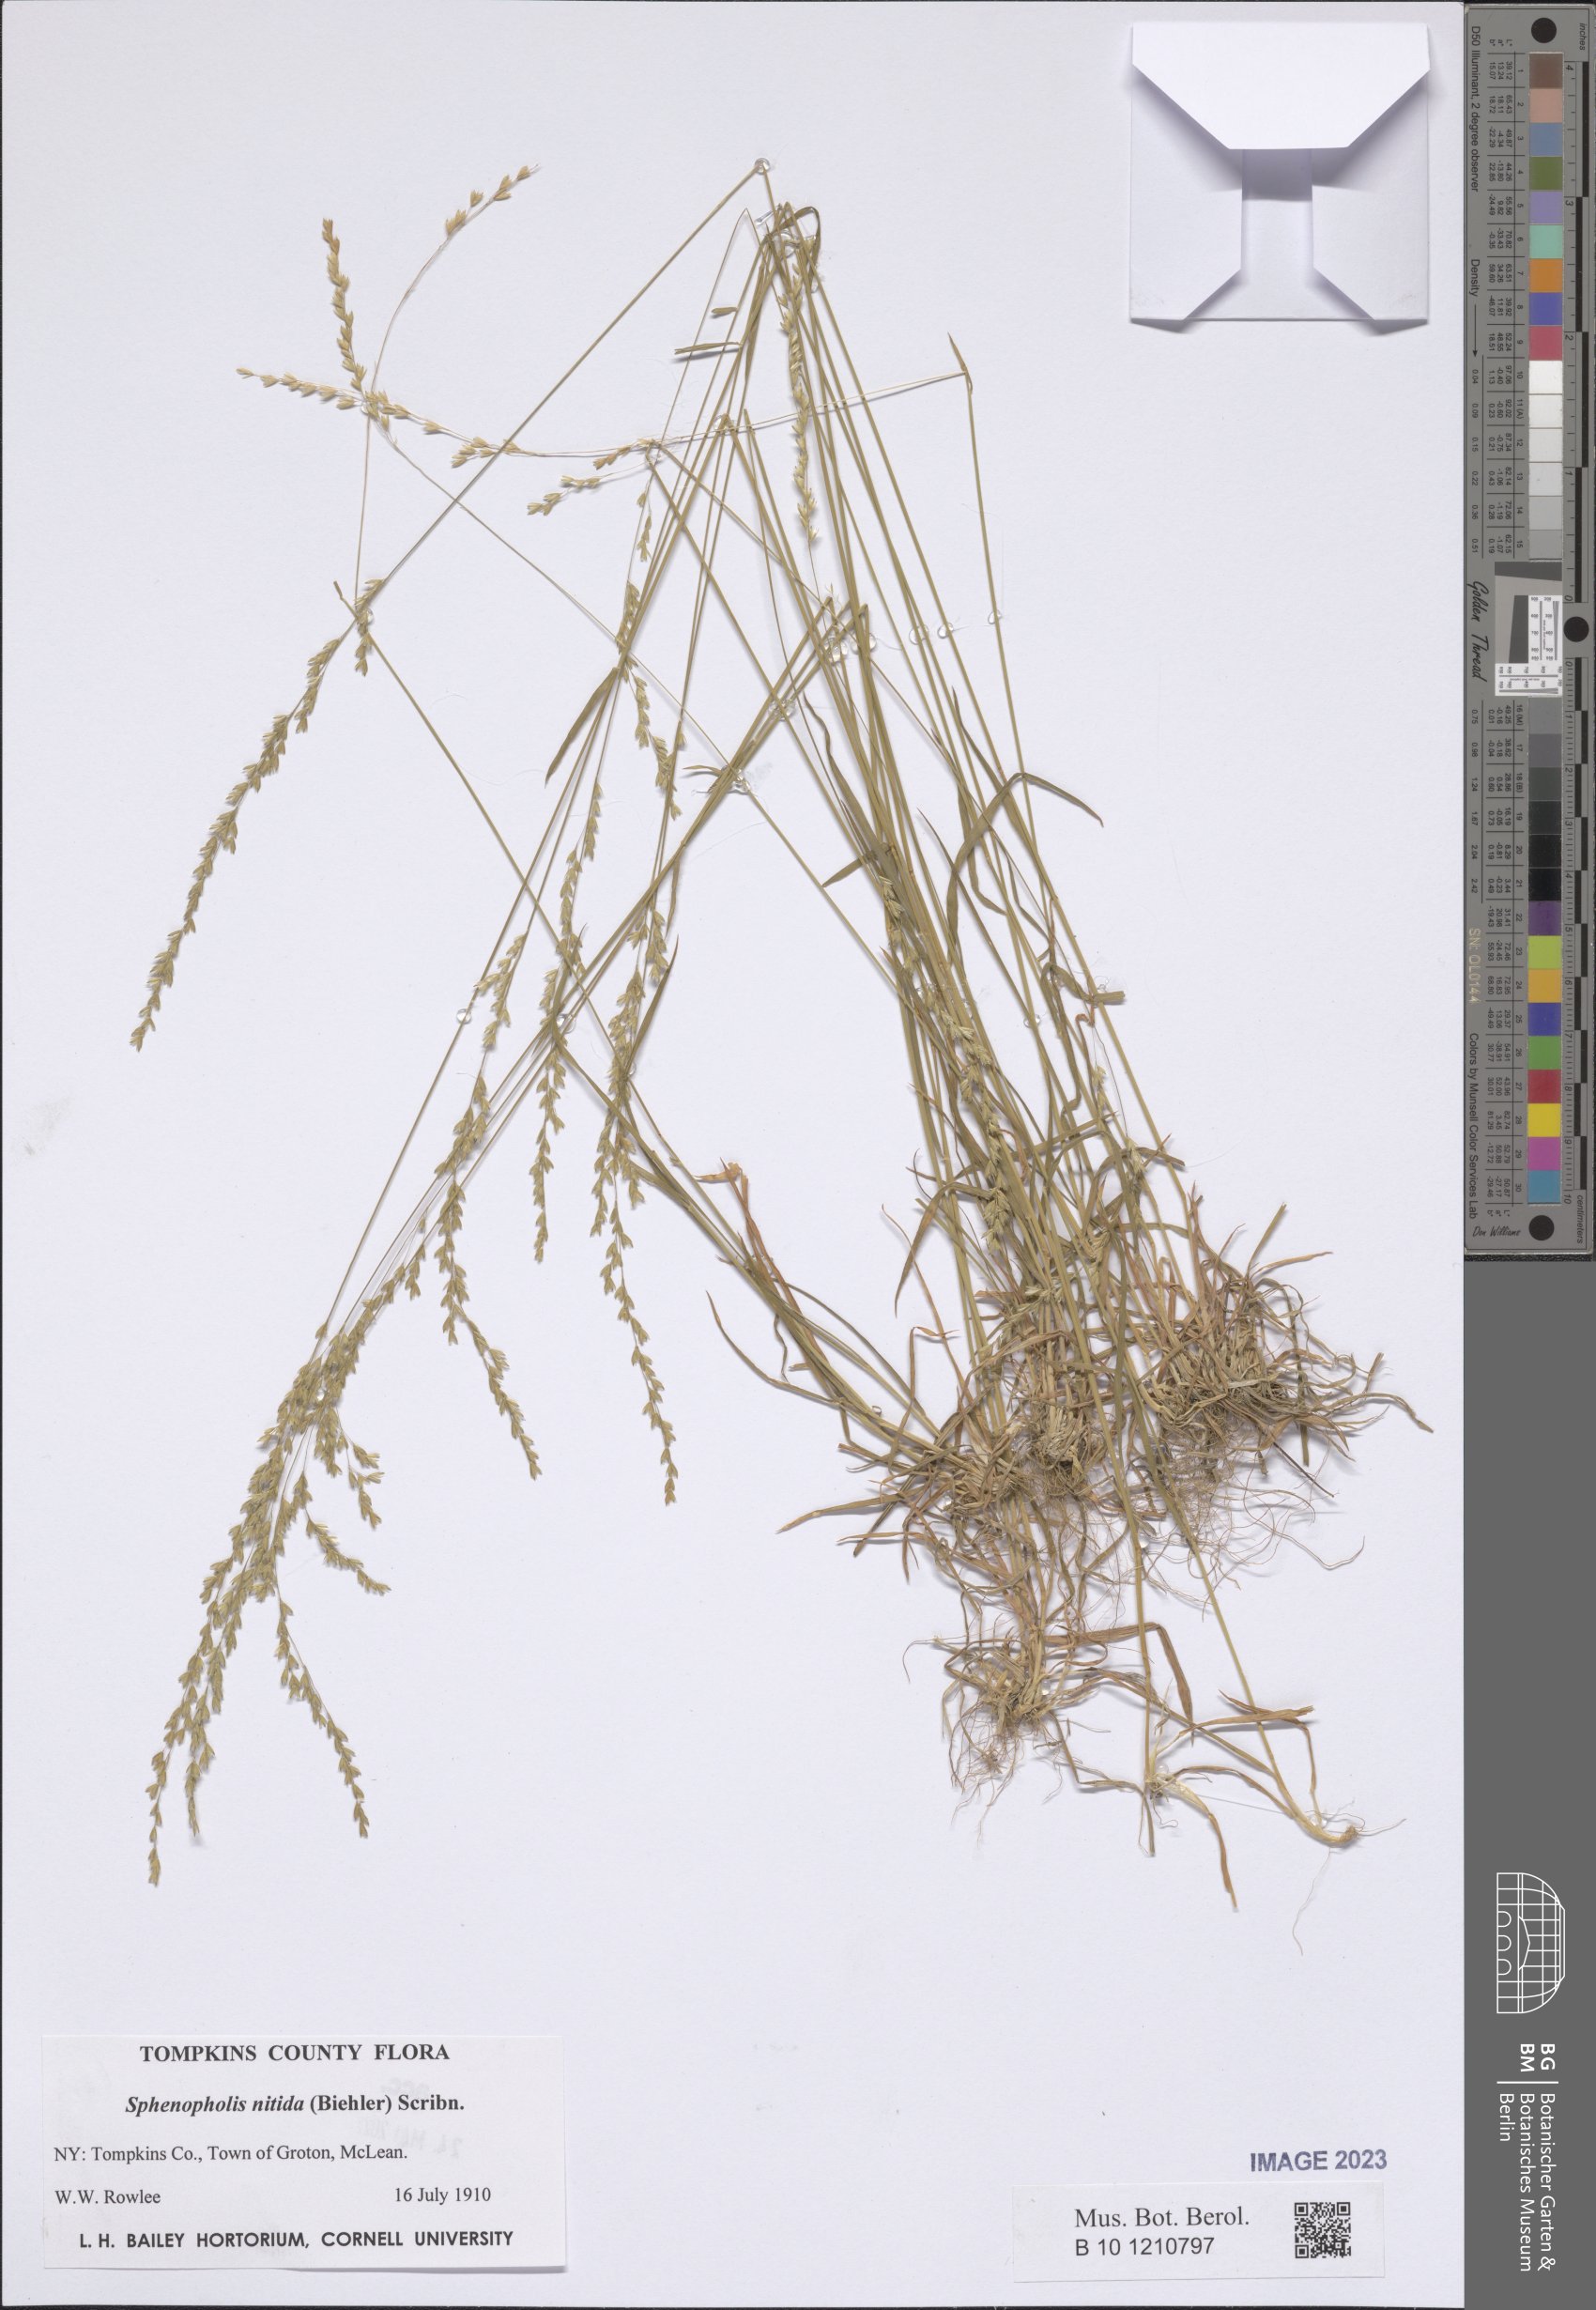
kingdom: Plantae
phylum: Tracheophyta
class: Liliopsida
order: Poales
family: Poaceae
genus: Sphenopholis
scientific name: Sphenopholis nitida
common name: Shiny wedgegrass
